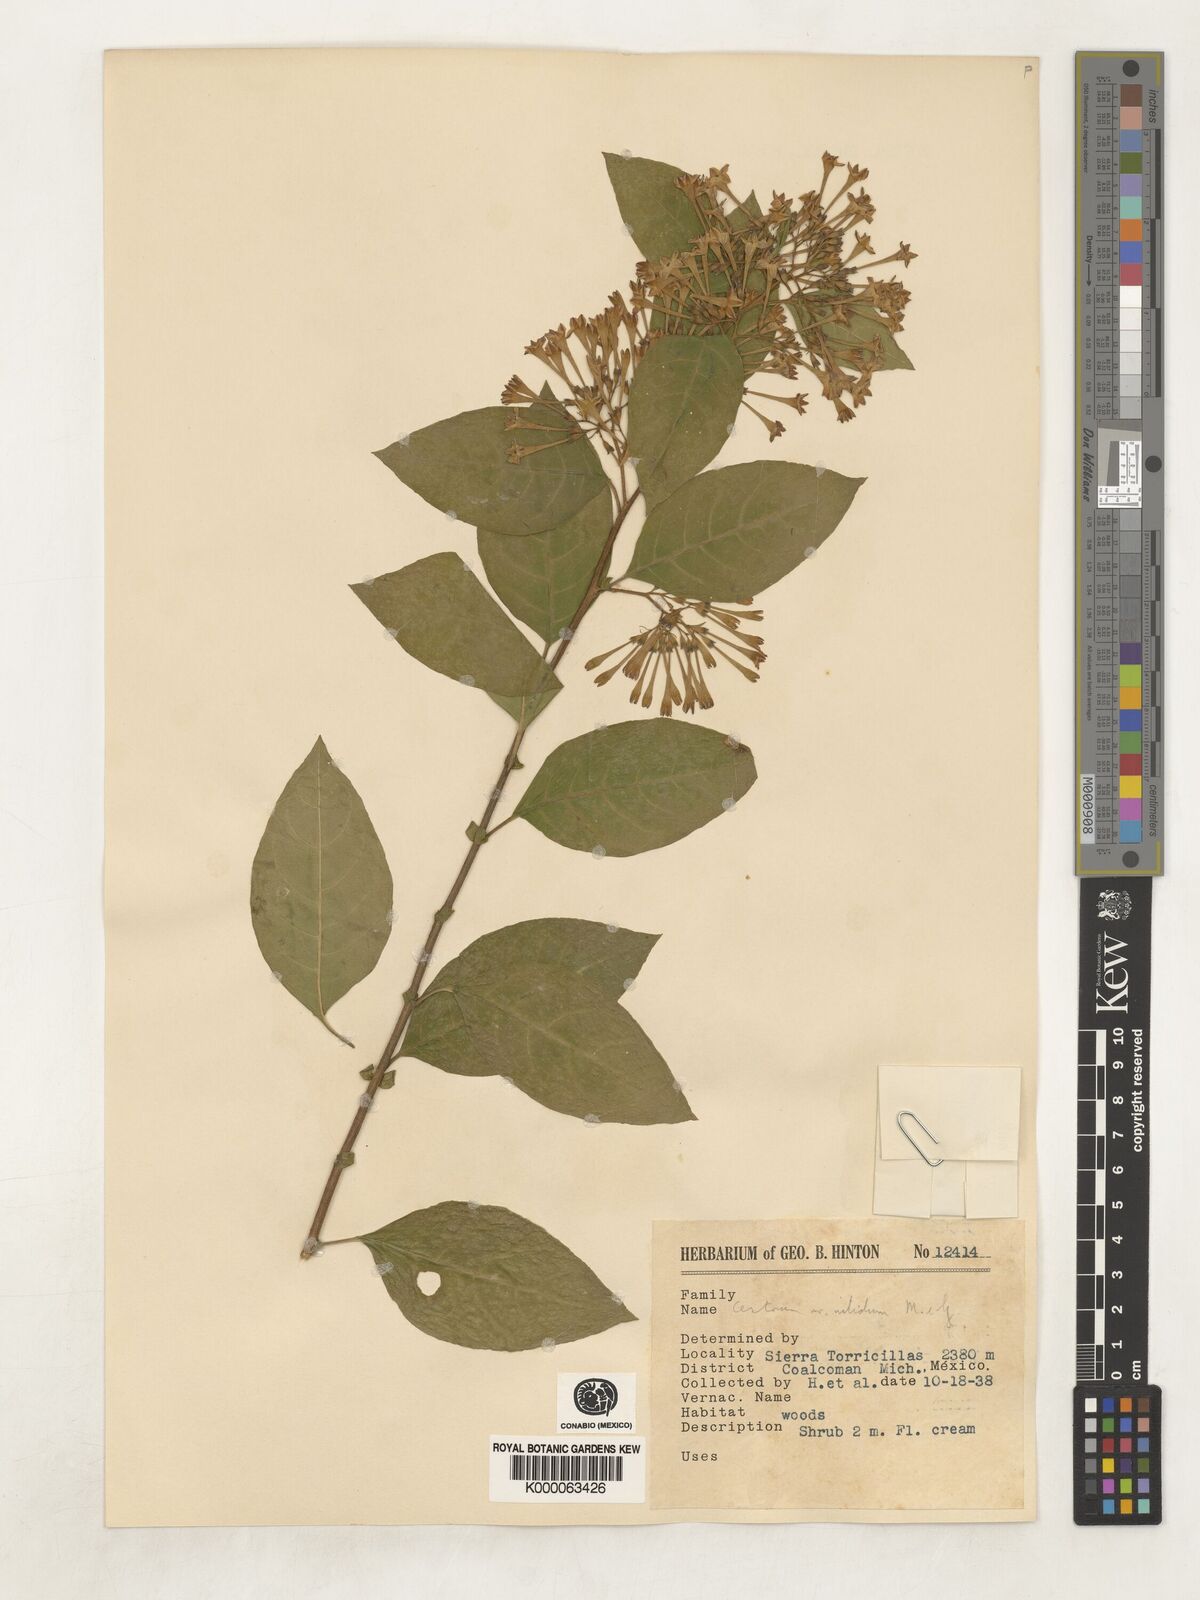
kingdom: Plantae
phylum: Tracheophyta
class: Magnoliopsida
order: Solanales
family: Solanaceae
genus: Cestrum
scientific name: Cestrum nitidum
